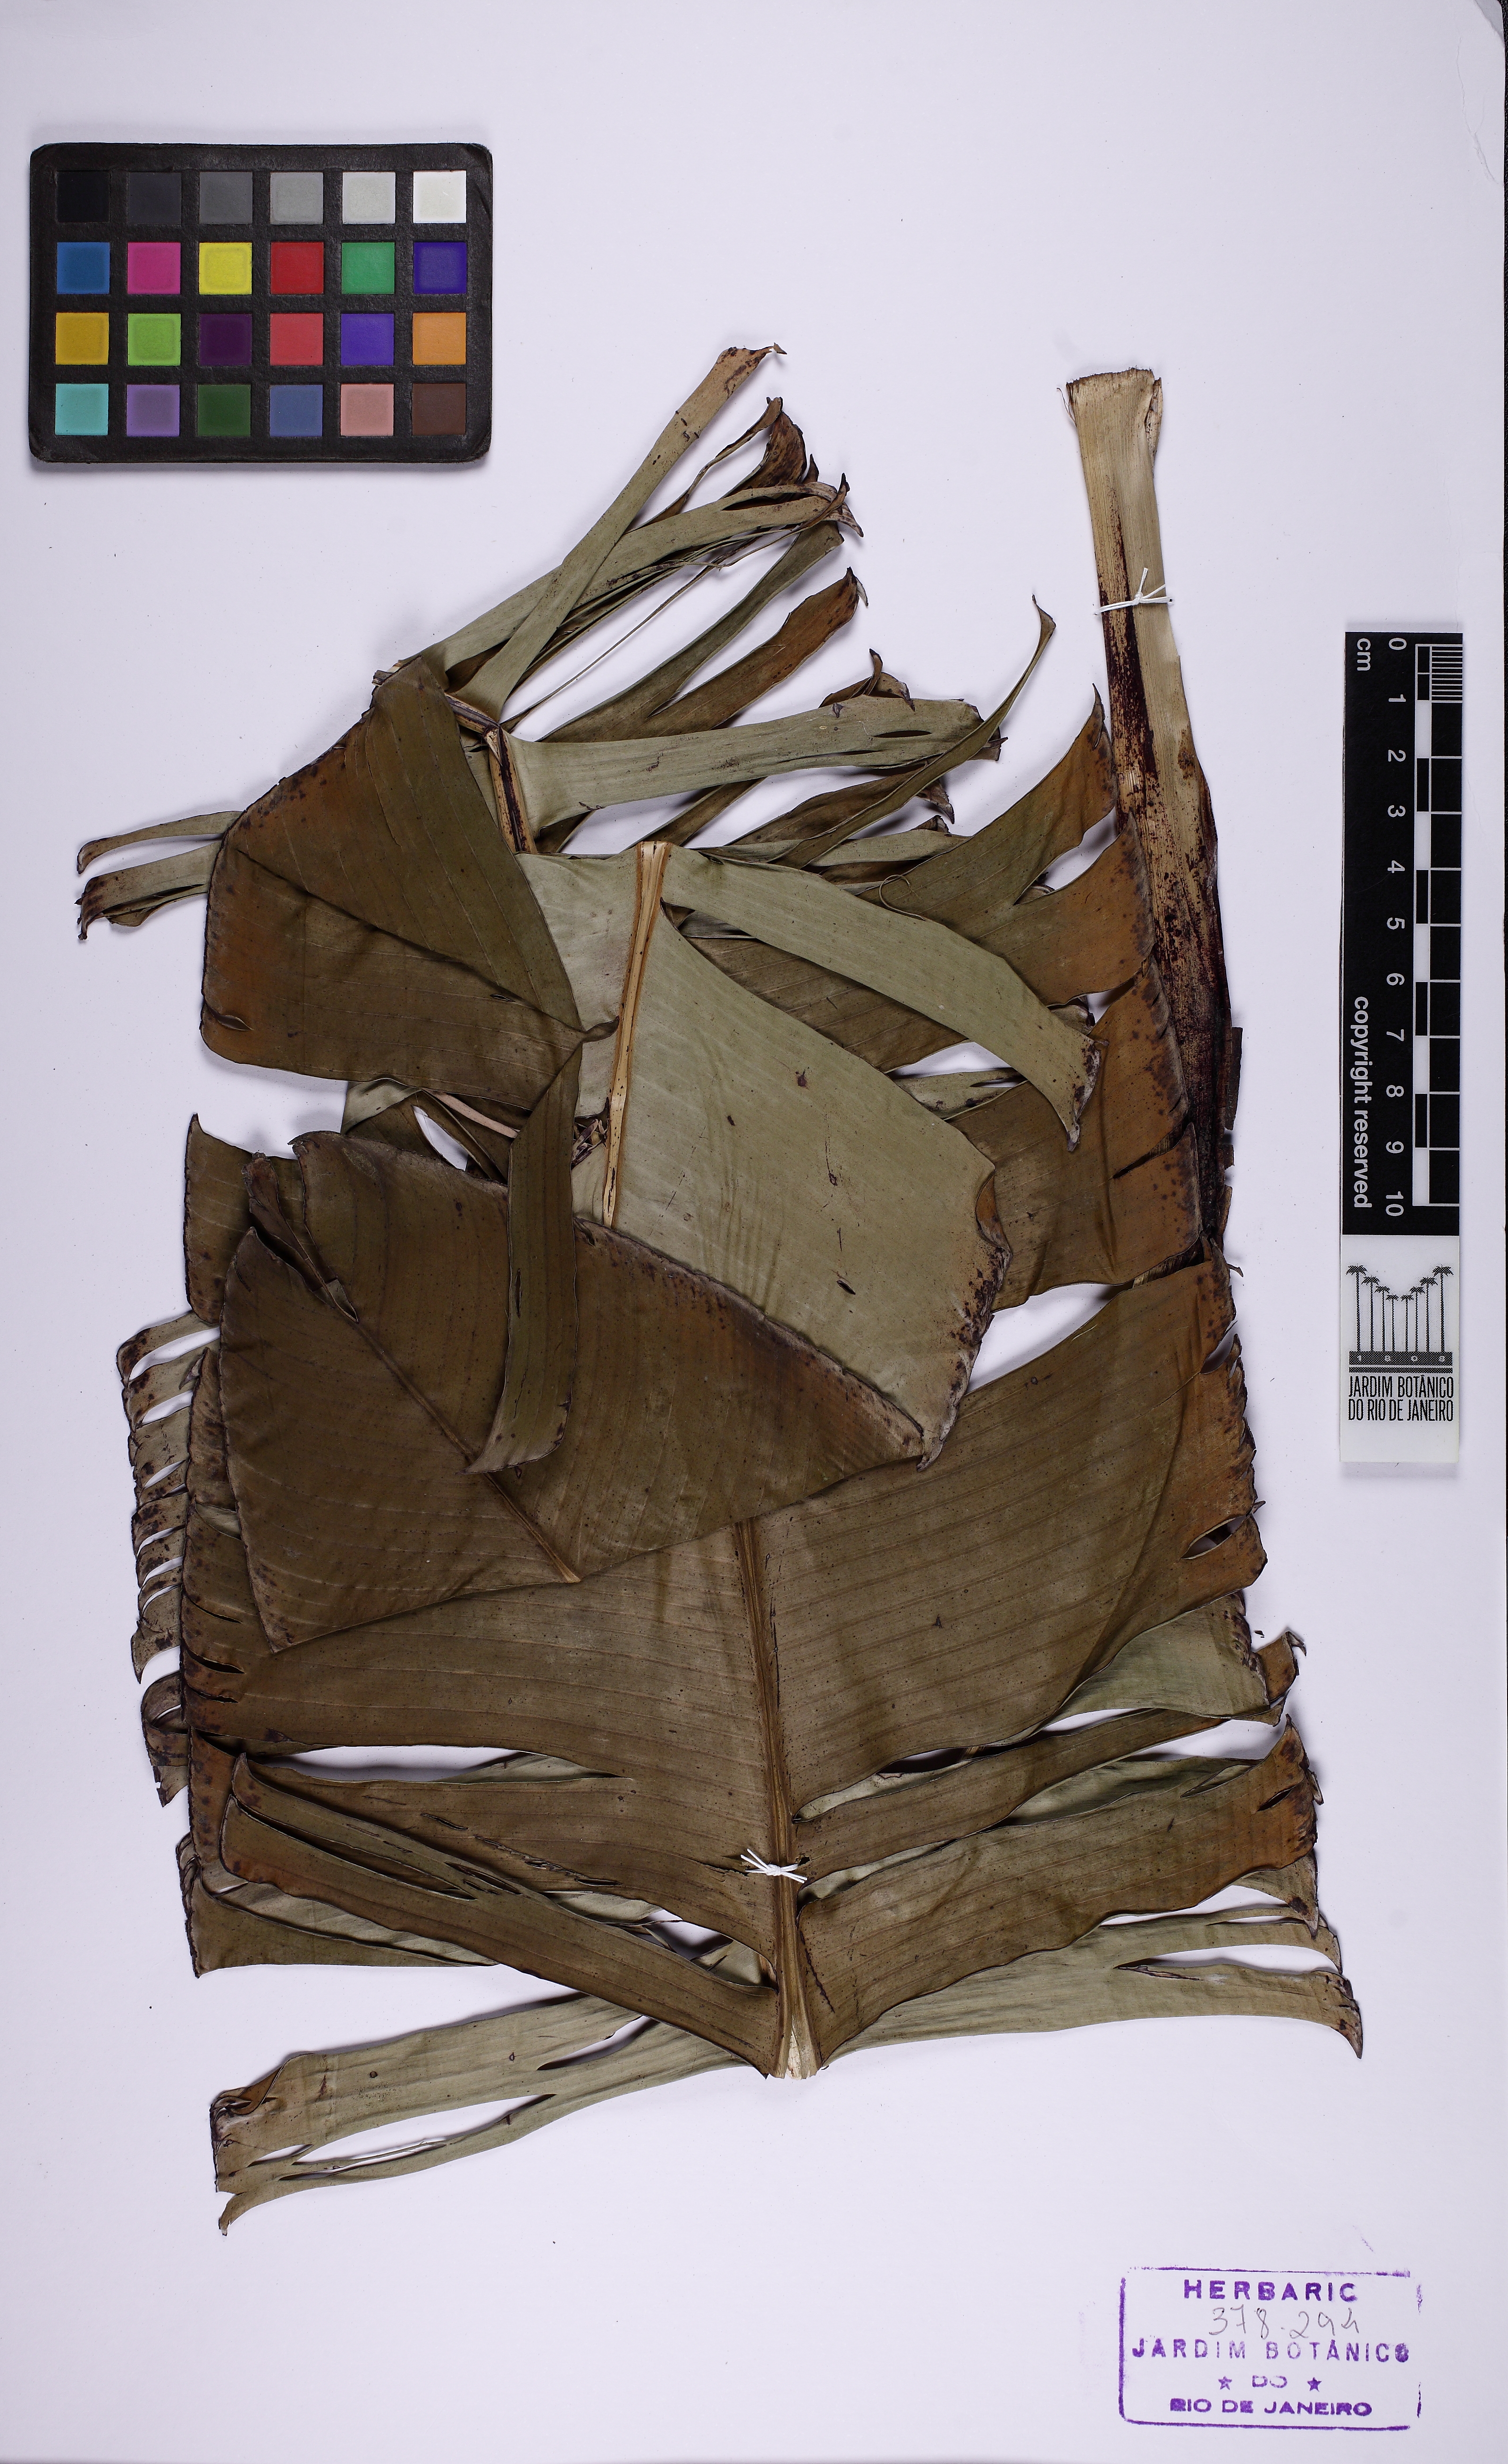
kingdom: Plantae
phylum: Tracheophyta
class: Liliopsida
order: Zingiberales
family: Musaceae
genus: Musa
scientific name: Musa coccinea
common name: Scarlet banana
